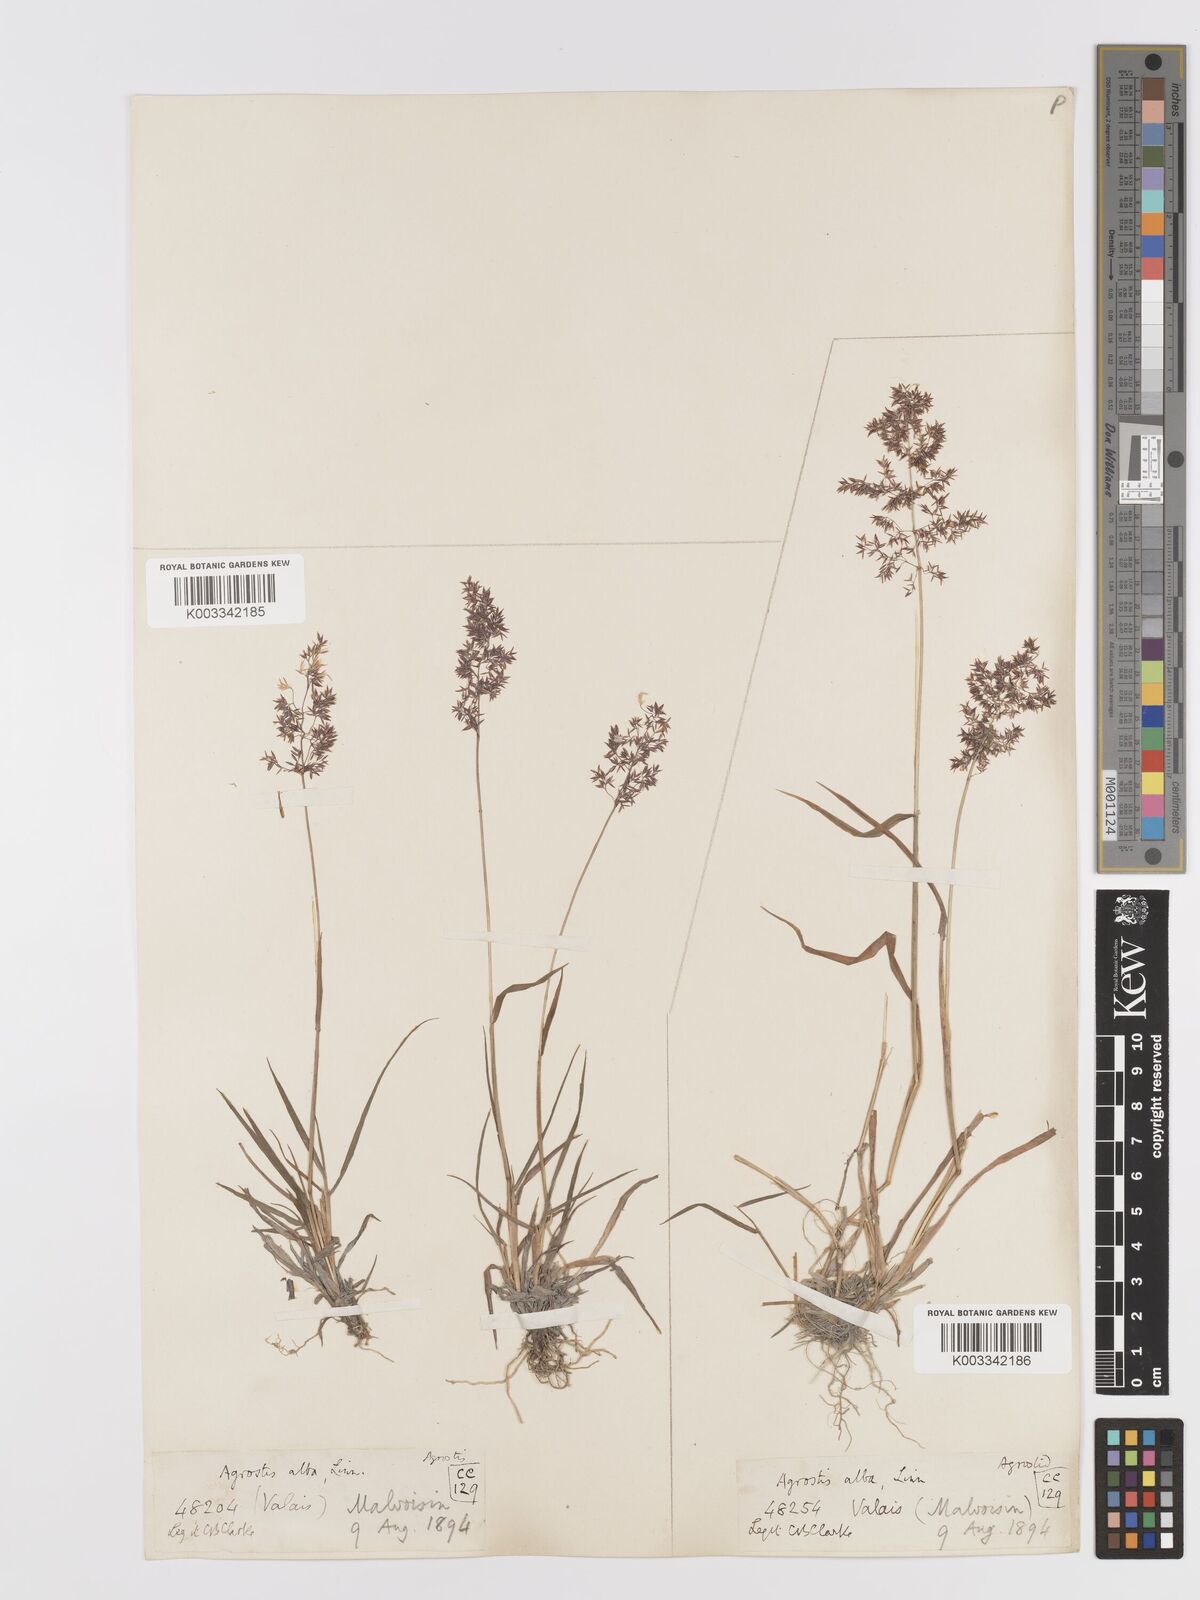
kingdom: Plantae
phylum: Tracheophyta
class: Liliopsida
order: Poales
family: Poaceae
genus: Agrostis
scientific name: Agrostis stolonifera
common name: Creeping bentgrass
